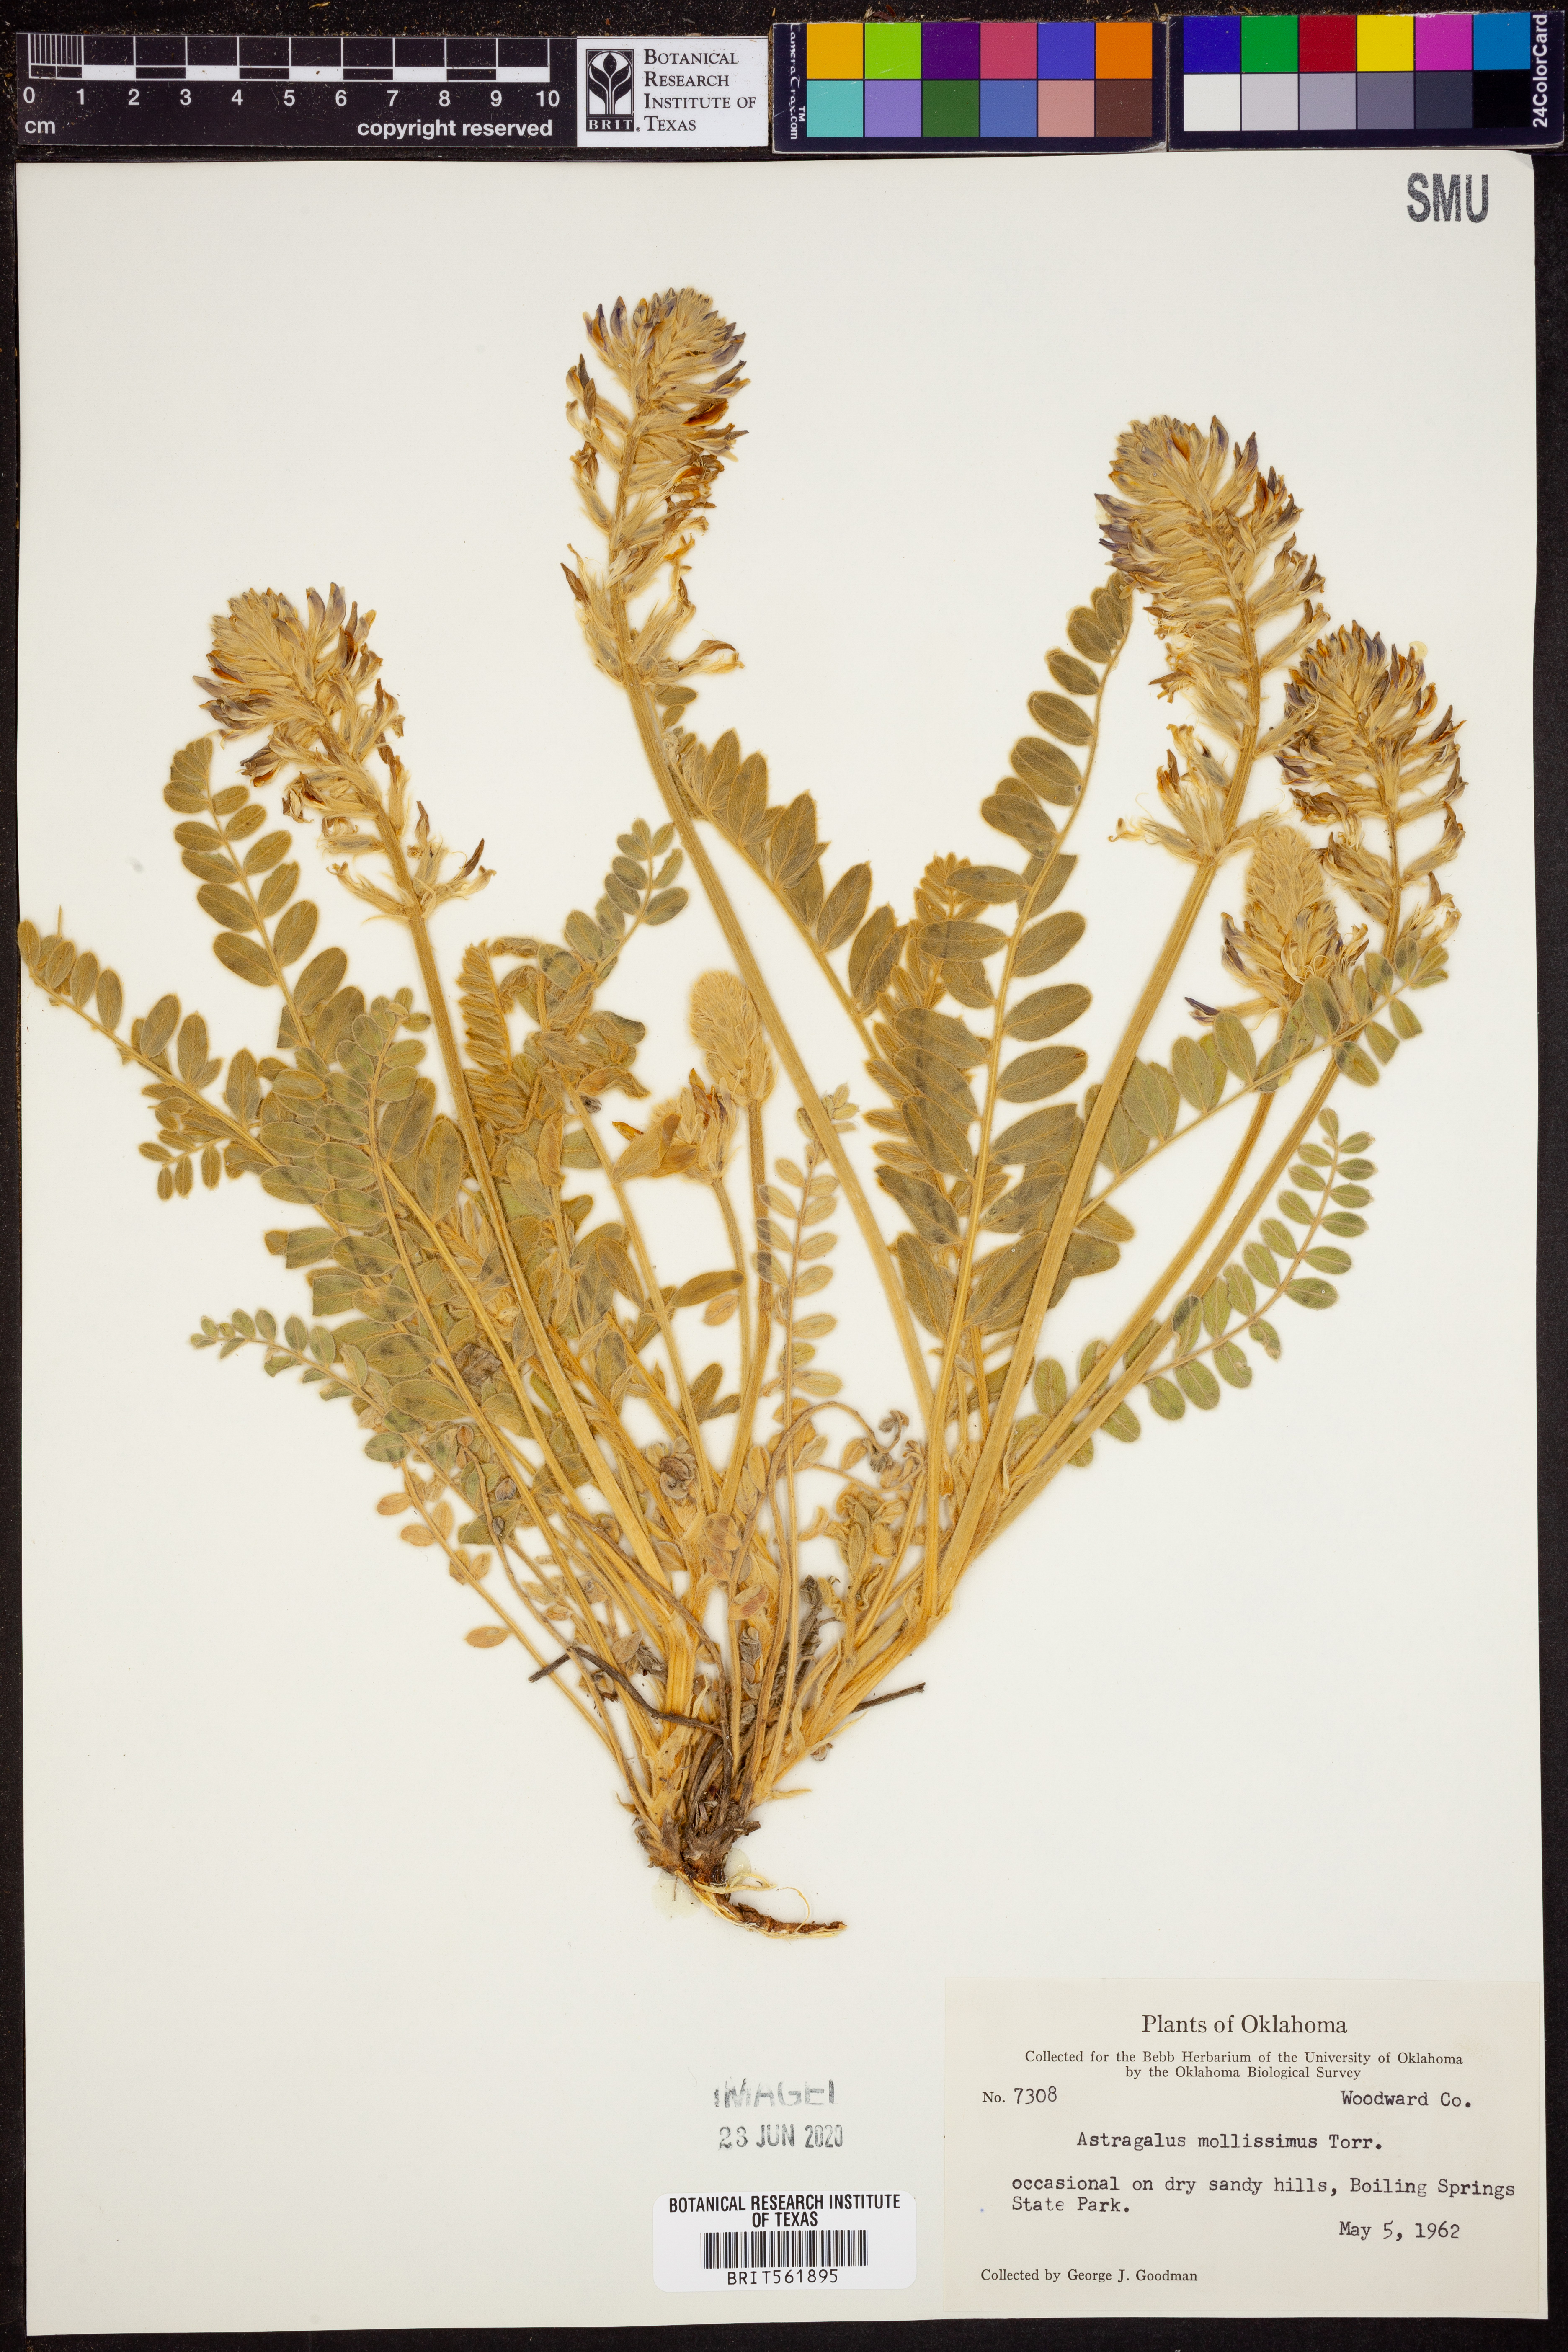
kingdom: Plantae
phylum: Tracheophyta
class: Magnoliopsida
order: Fabales
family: Fabaceae
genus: Astragalus
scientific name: Astragalus mollissimus
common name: Woolly locoweed
